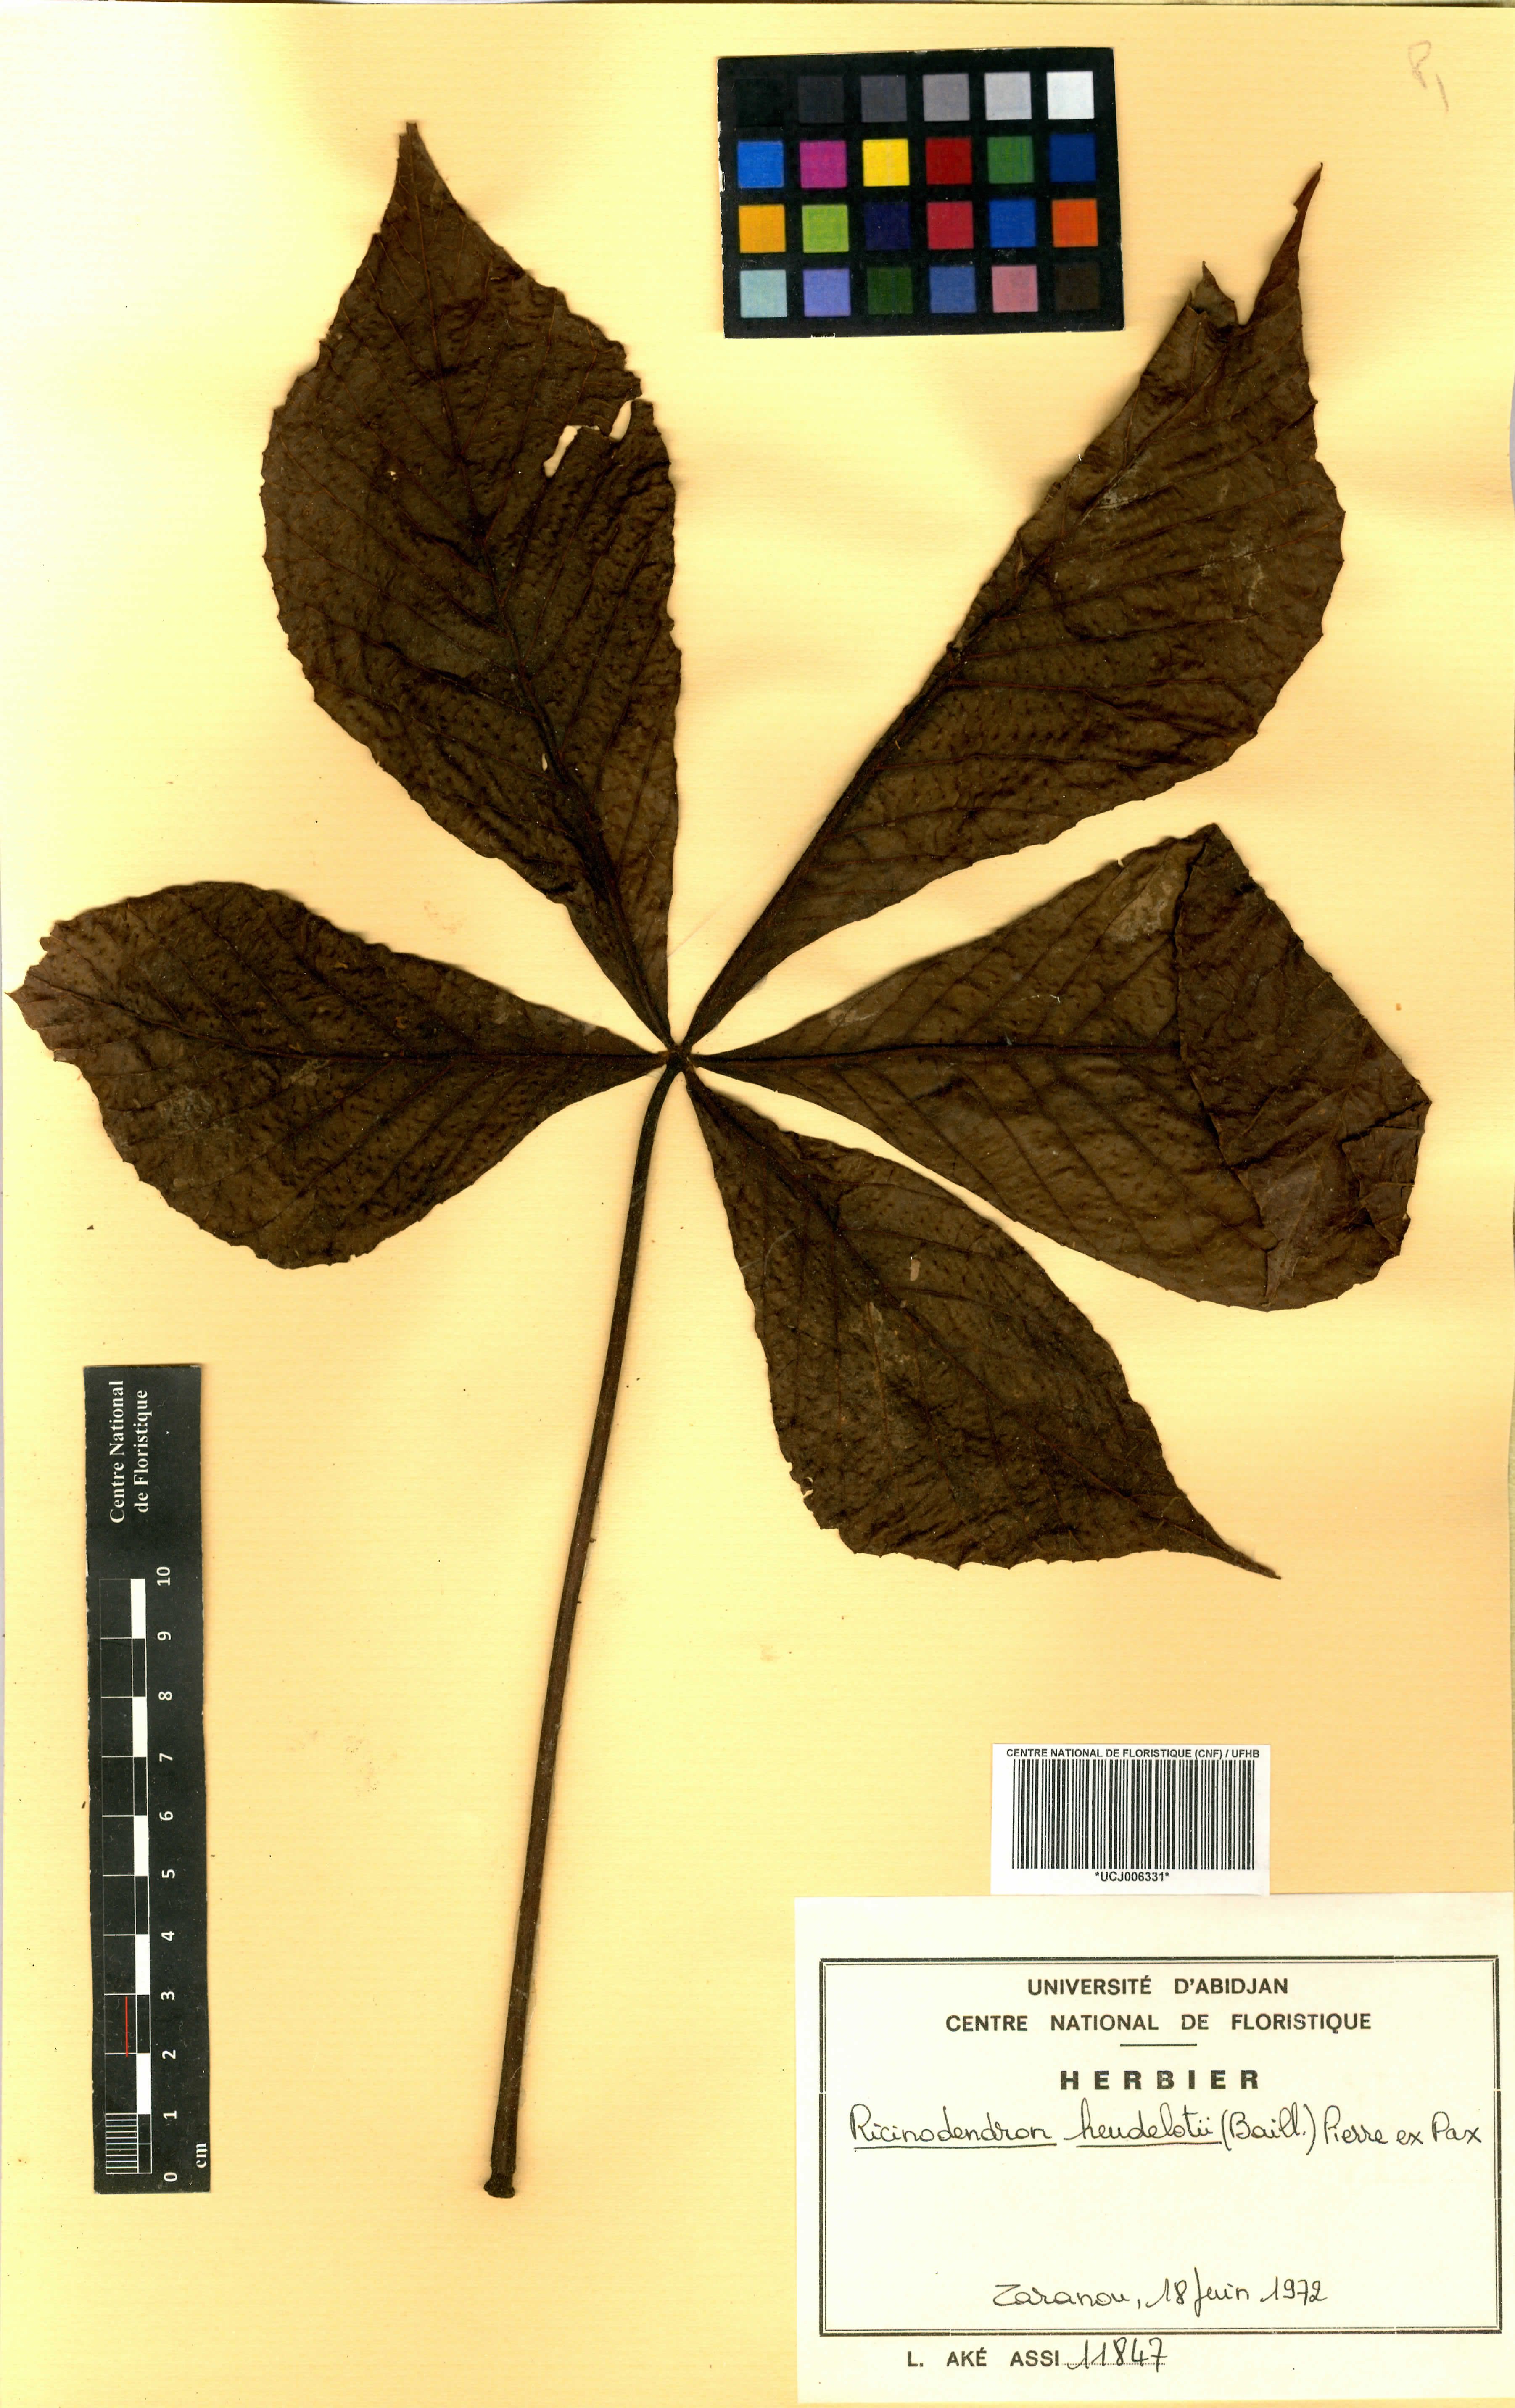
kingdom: Plantae
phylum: Tracheophyta
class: Magnoliopsida
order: Malpighiales
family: Euphorbiaceae
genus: Ricinodendron
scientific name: Ricinodendron heudelotii
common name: African nut-tree
